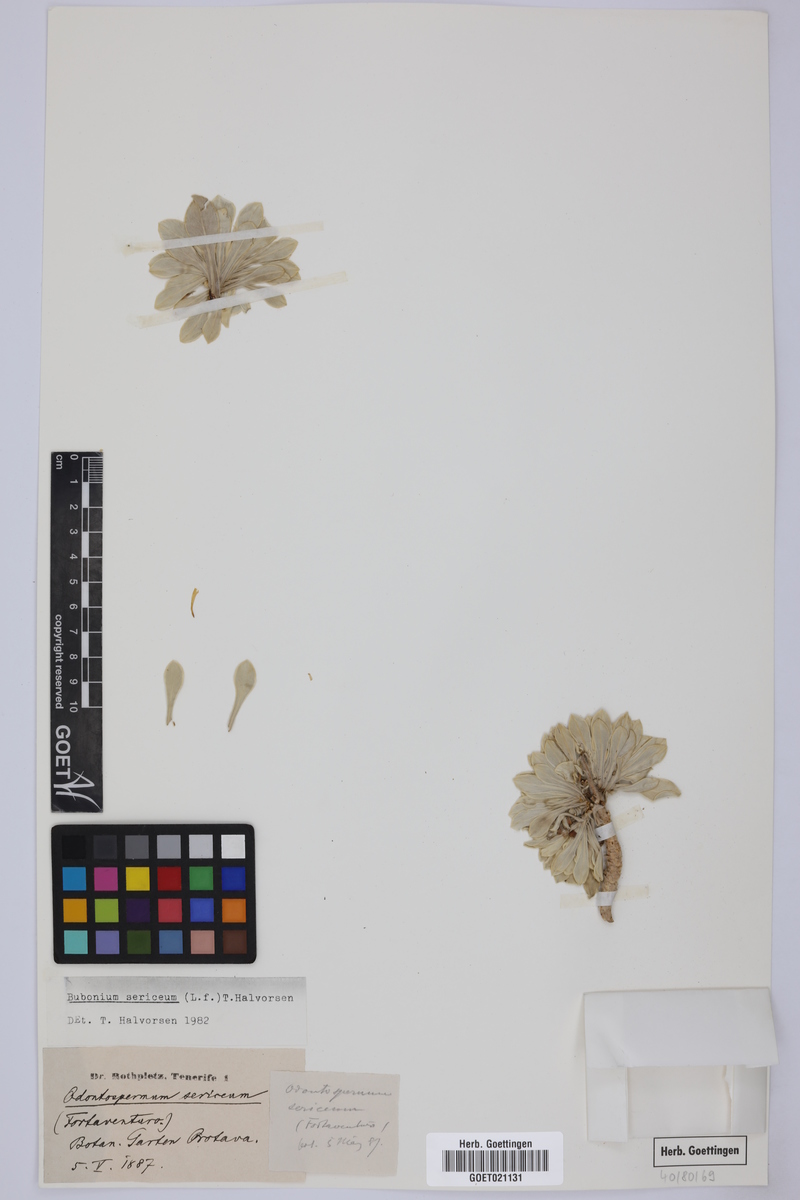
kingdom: Plantae
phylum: Tracheophyta
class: Magnoliopsida
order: Asterales
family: Asteraceae
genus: Asteriscus
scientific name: Asteriscus sericeus
